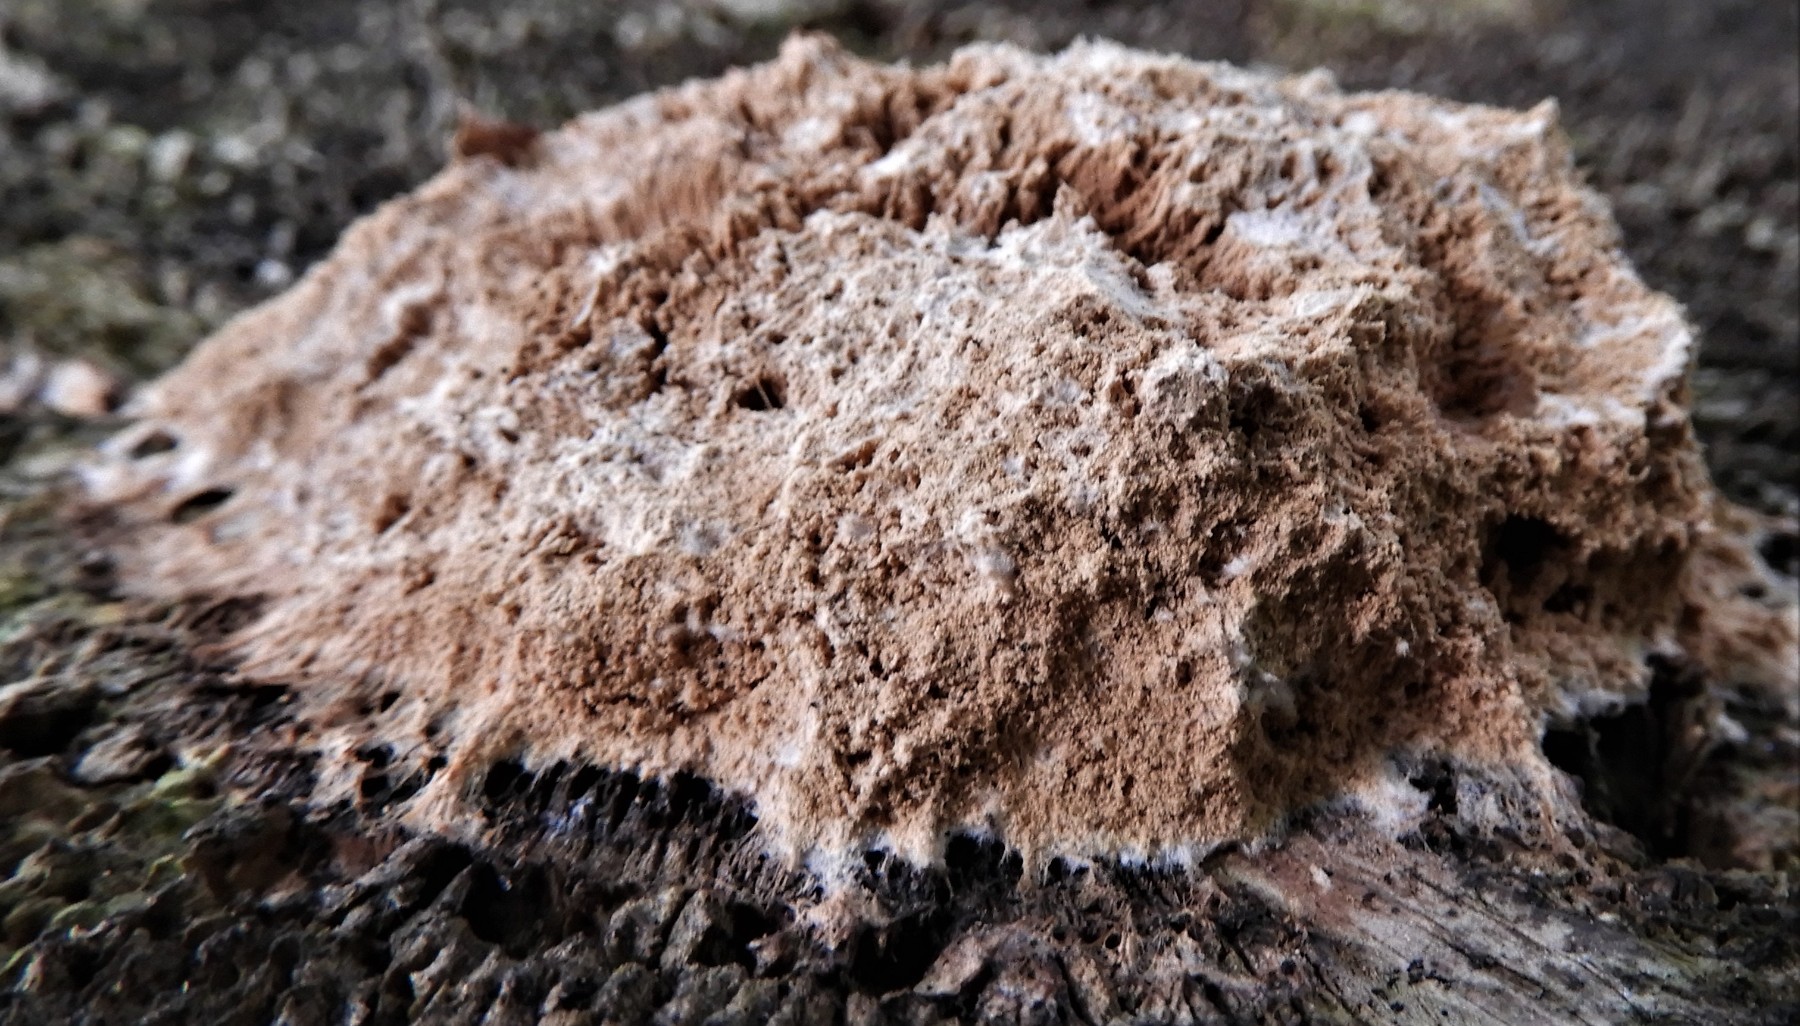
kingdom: Protozoa
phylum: Mycetozoa
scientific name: Mycetozoa
